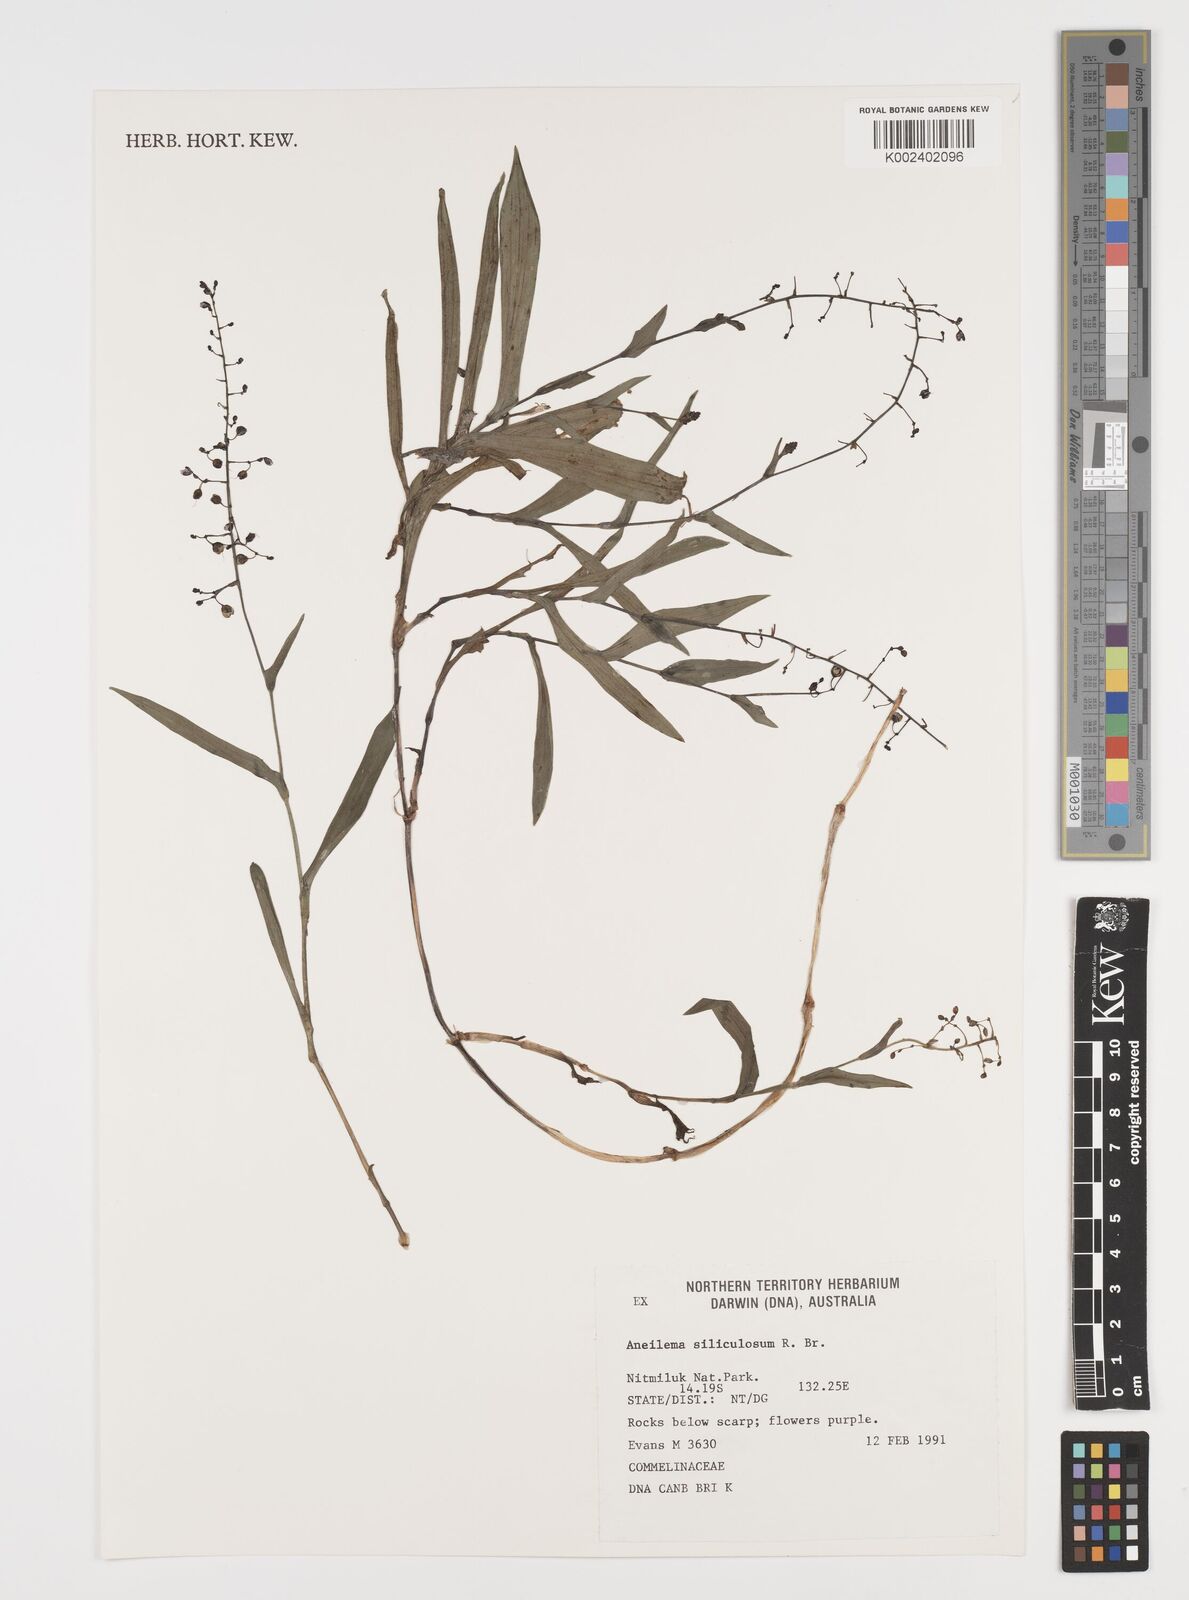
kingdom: Plantae
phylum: Tracheophyta
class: Liliopsida
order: Commelinales
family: Commelinaceae
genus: Aneilema
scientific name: Aneilema siliculosum
